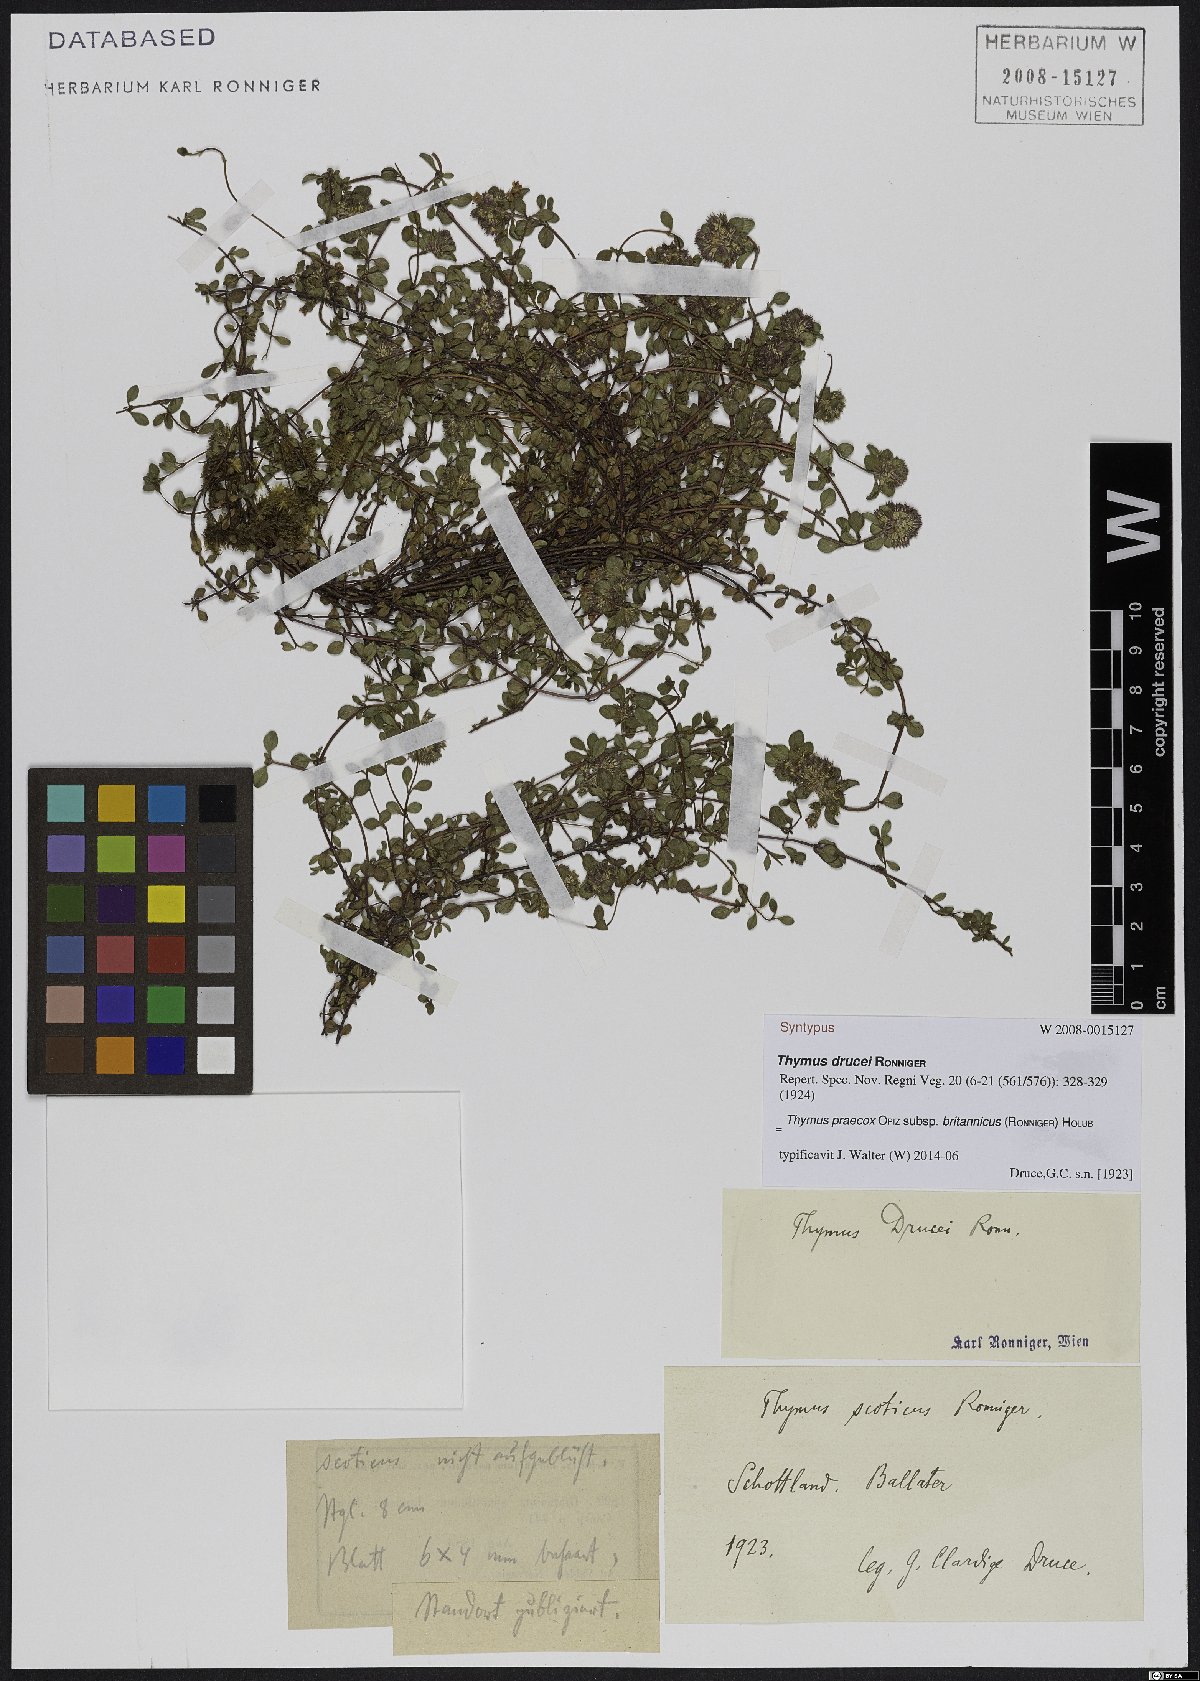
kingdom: Plantae
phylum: Tracheophyta
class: Magnoliopsida
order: Lamiales
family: Lamiaceae
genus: Thymus
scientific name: Thymus praecox
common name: Wild thyme
